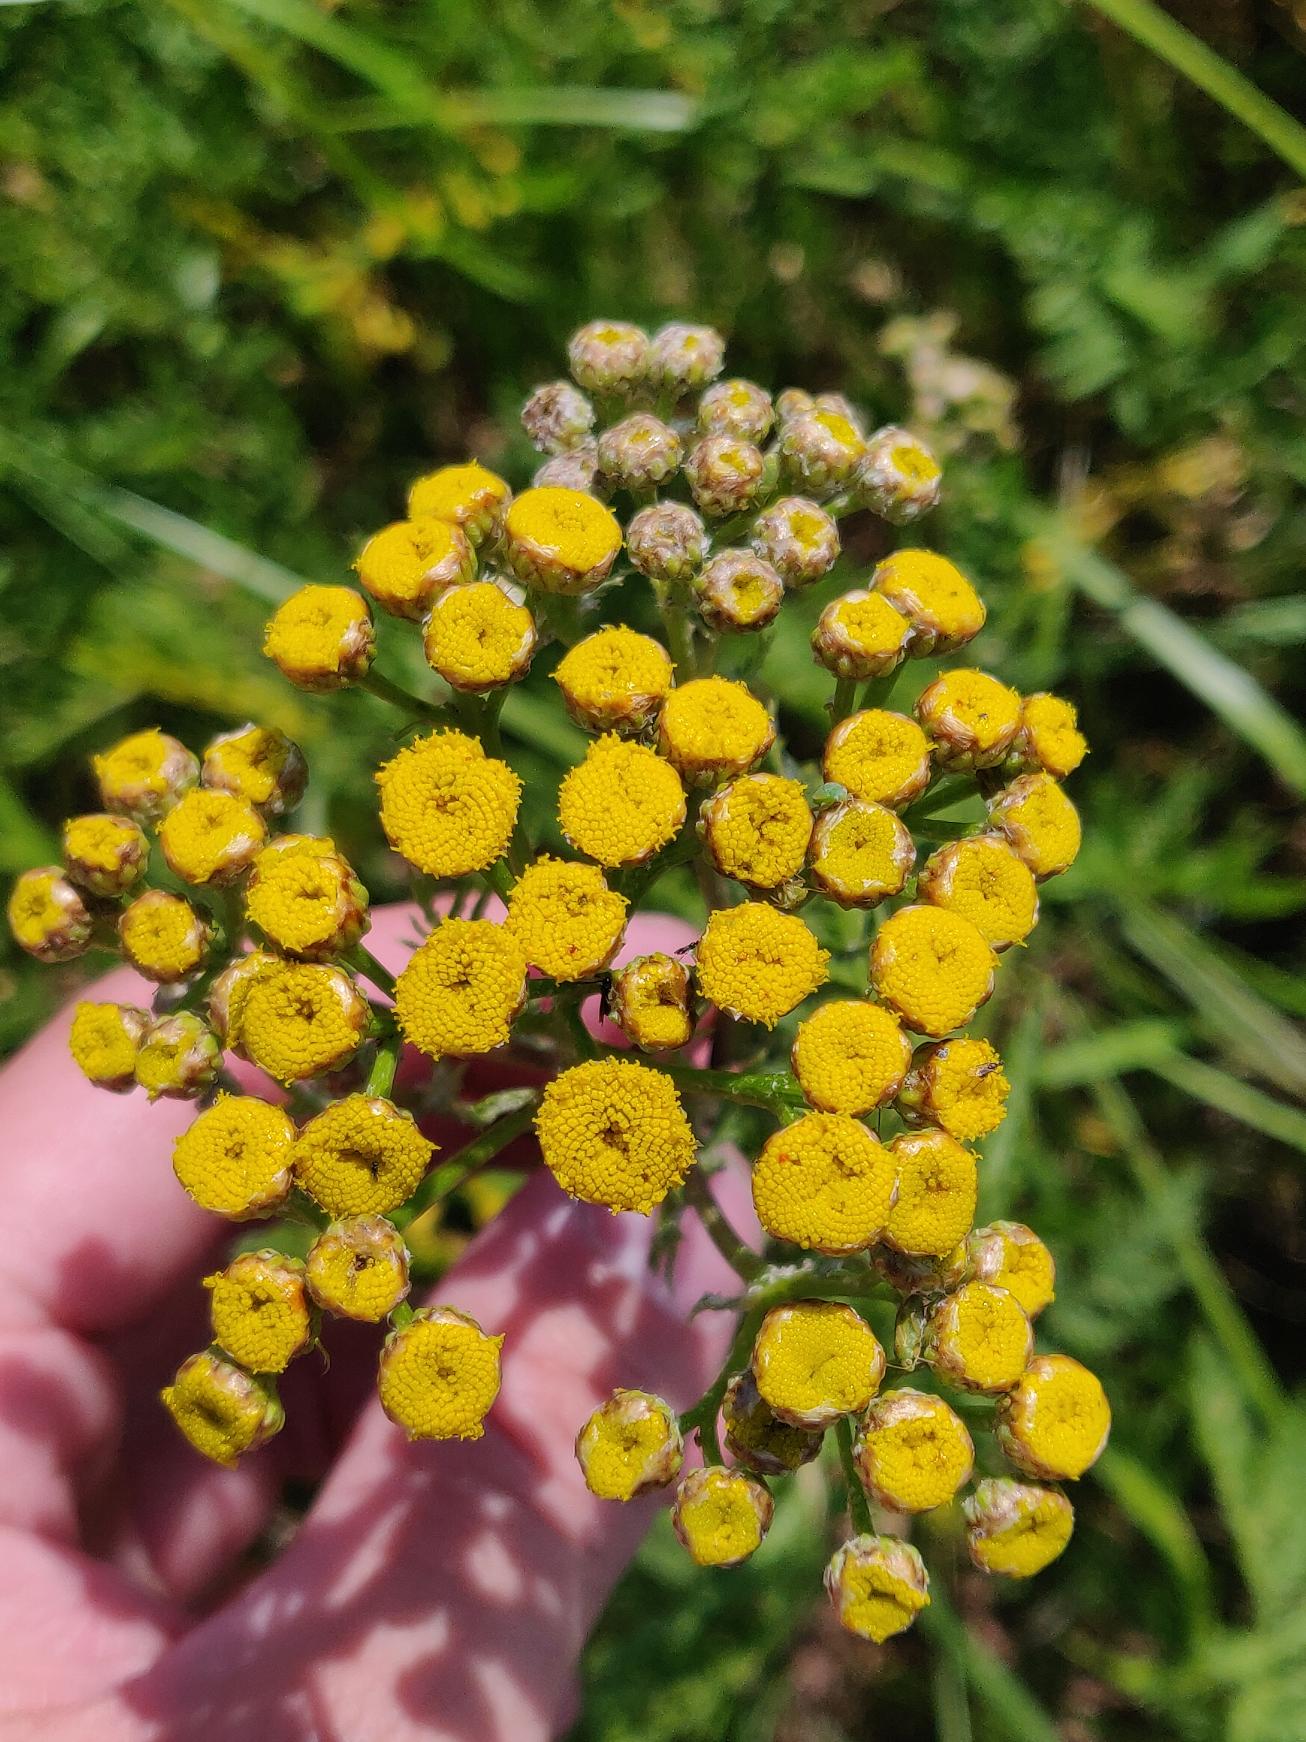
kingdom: Plantae
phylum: Tracheophyta
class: Magnoliopsida
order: Asterales
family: Asteraceae
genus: Tanacetum
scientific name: Tanacetum vulgare
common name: Rejnfan
